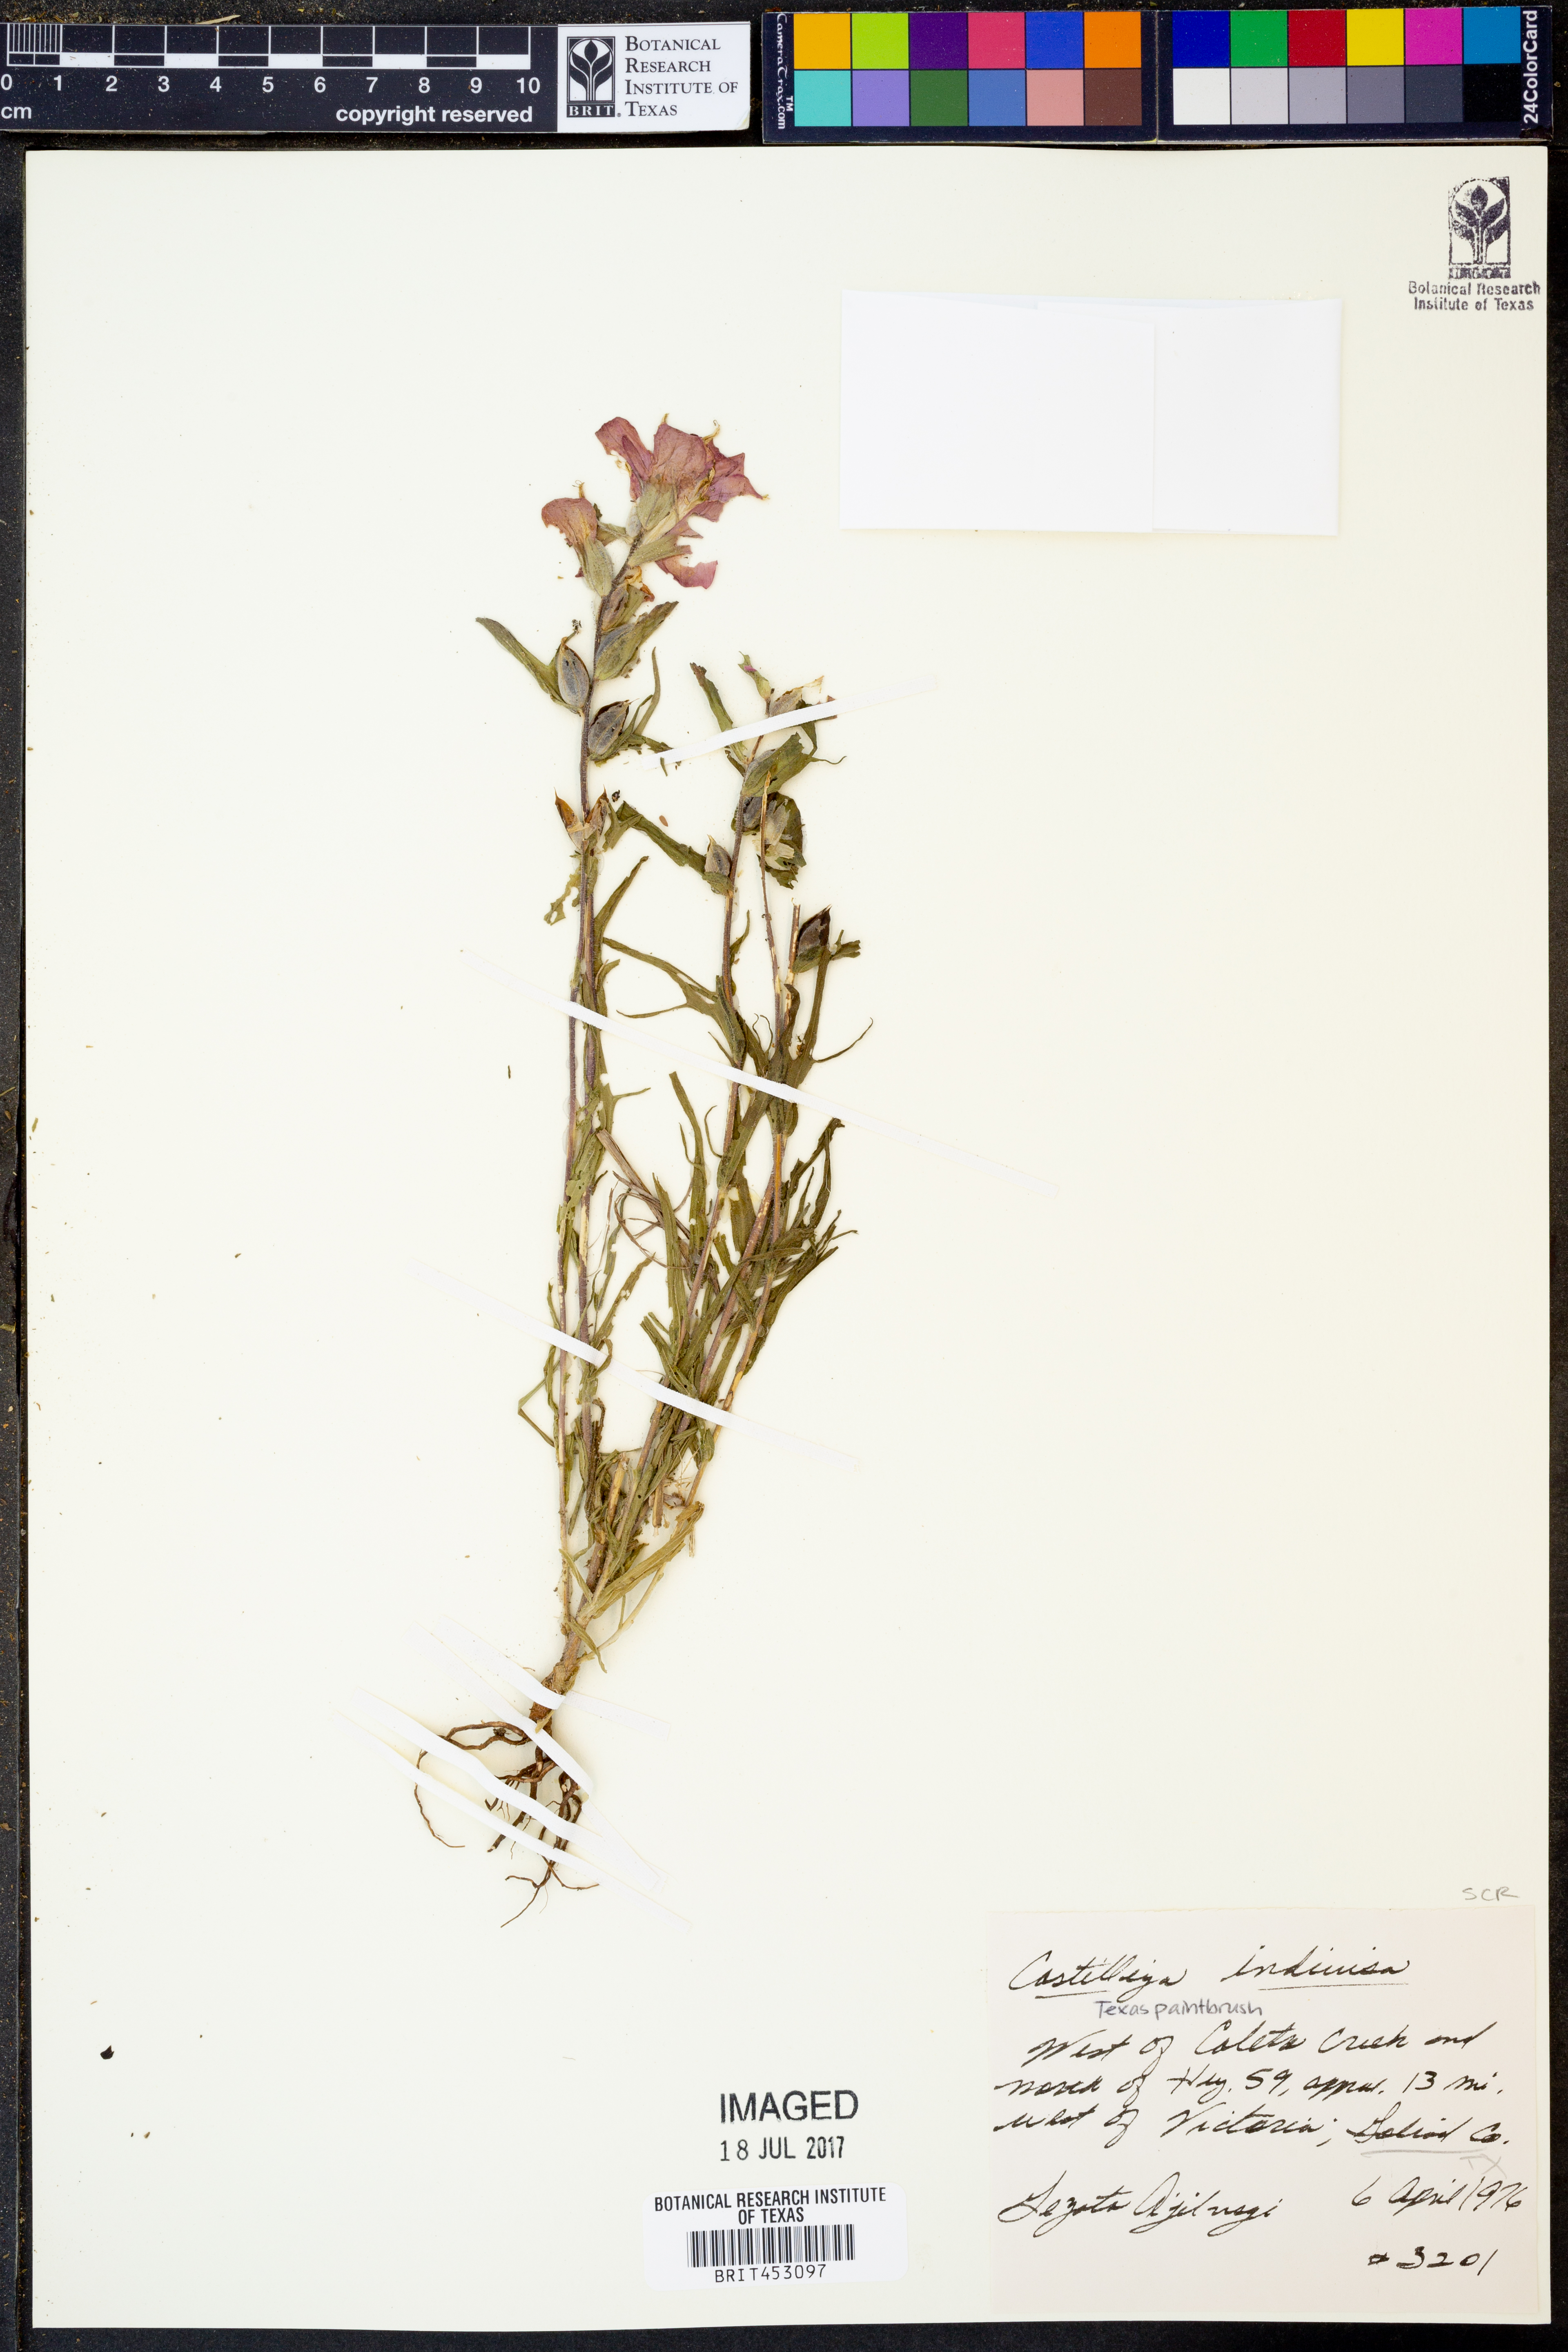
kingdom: Plantae
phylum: Tracheophyta
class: Magnoliopsida
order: Lamiales
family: Orobanchaceae
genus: Castilleja
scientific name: Castilleja indivisa
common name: Texas paintbrush
